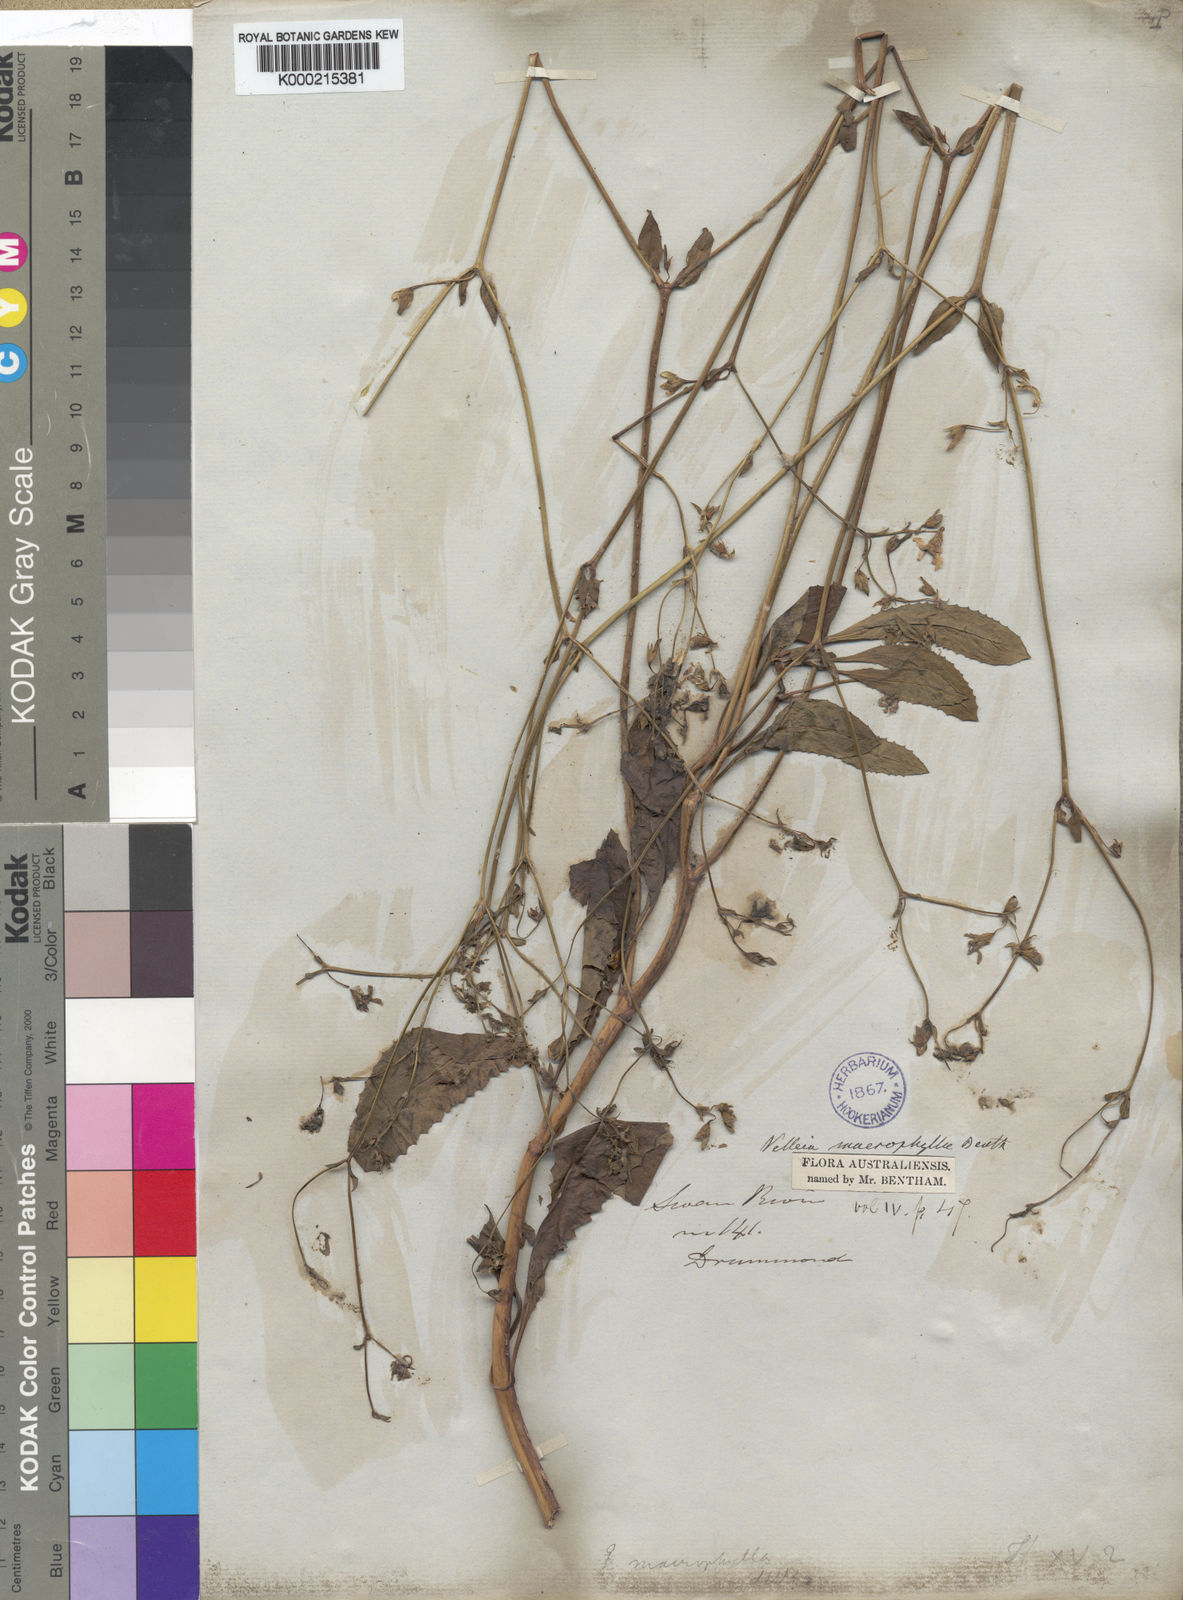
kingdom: Plantae
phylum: Tracheophyta
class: Magnoliopsida
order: Asterales
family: Goodeniaceae
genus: Goodenia
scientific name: Goodenia macrophylla
